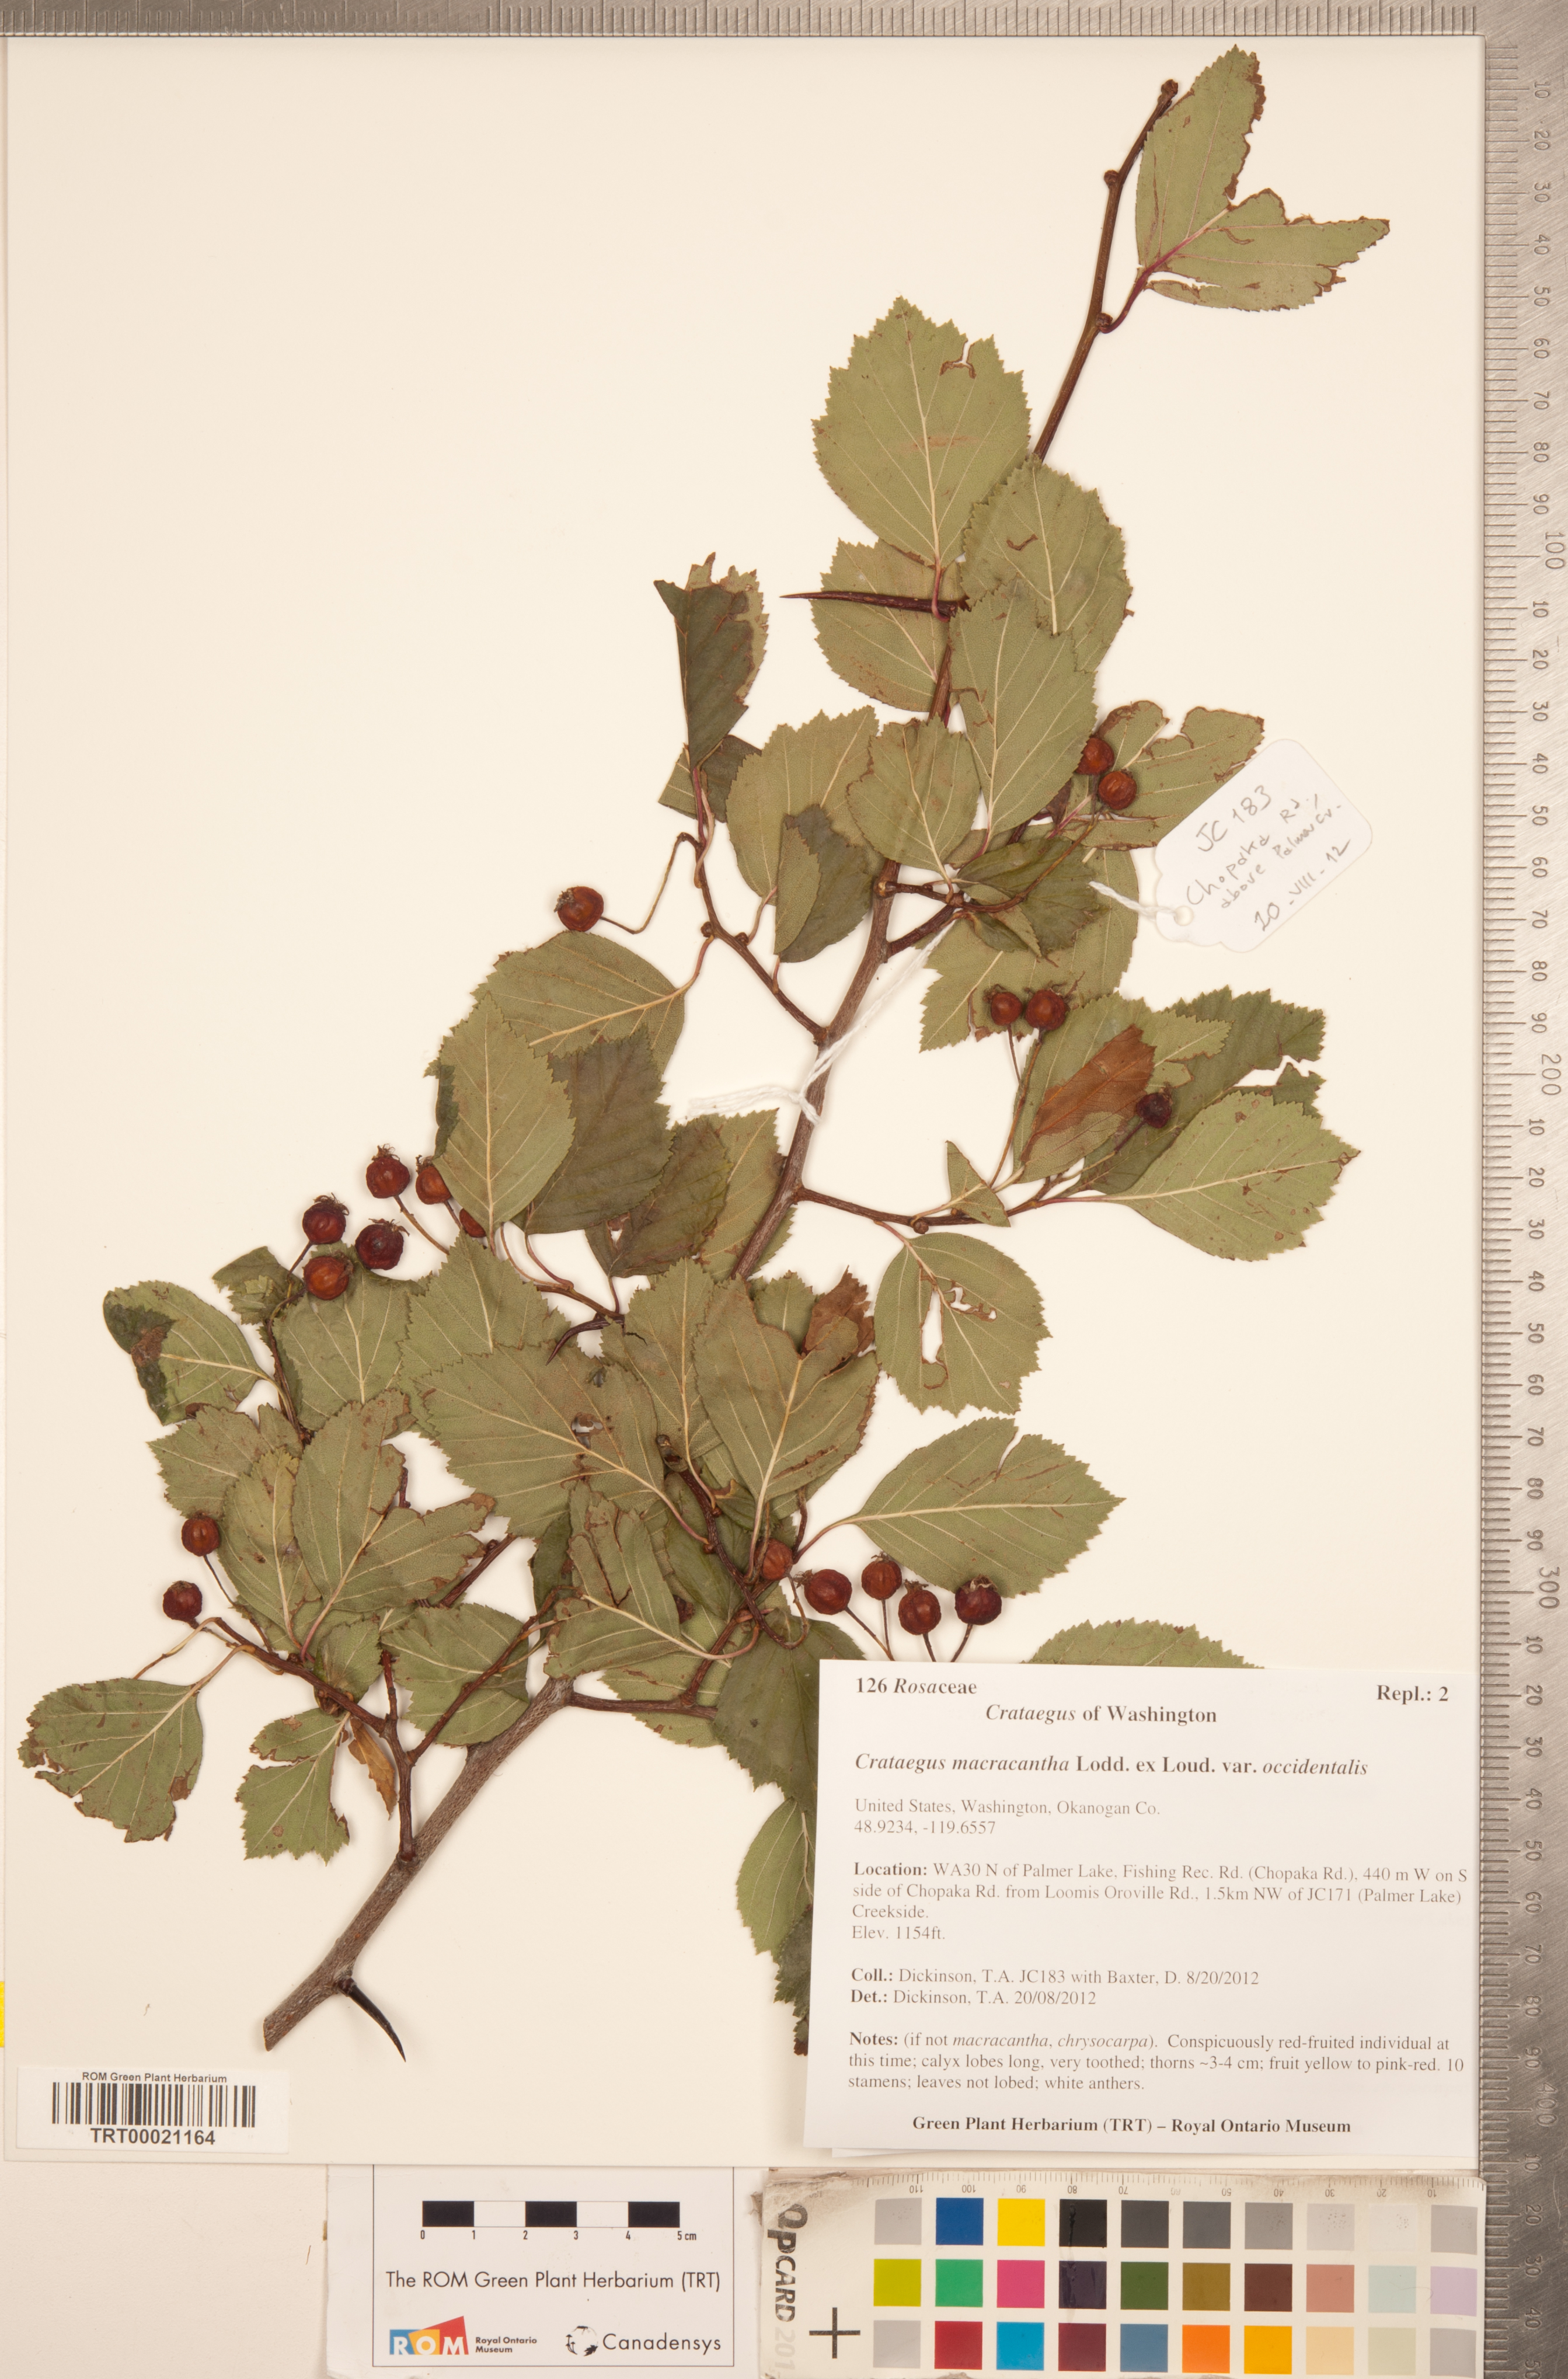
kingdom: Plantae
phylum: Tracheophyta
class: Magnoliopsida
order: Rosales
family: Rosaceae
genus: Crataegus
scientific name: Crataegus macracantha
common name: Large-thorn hawthorn
